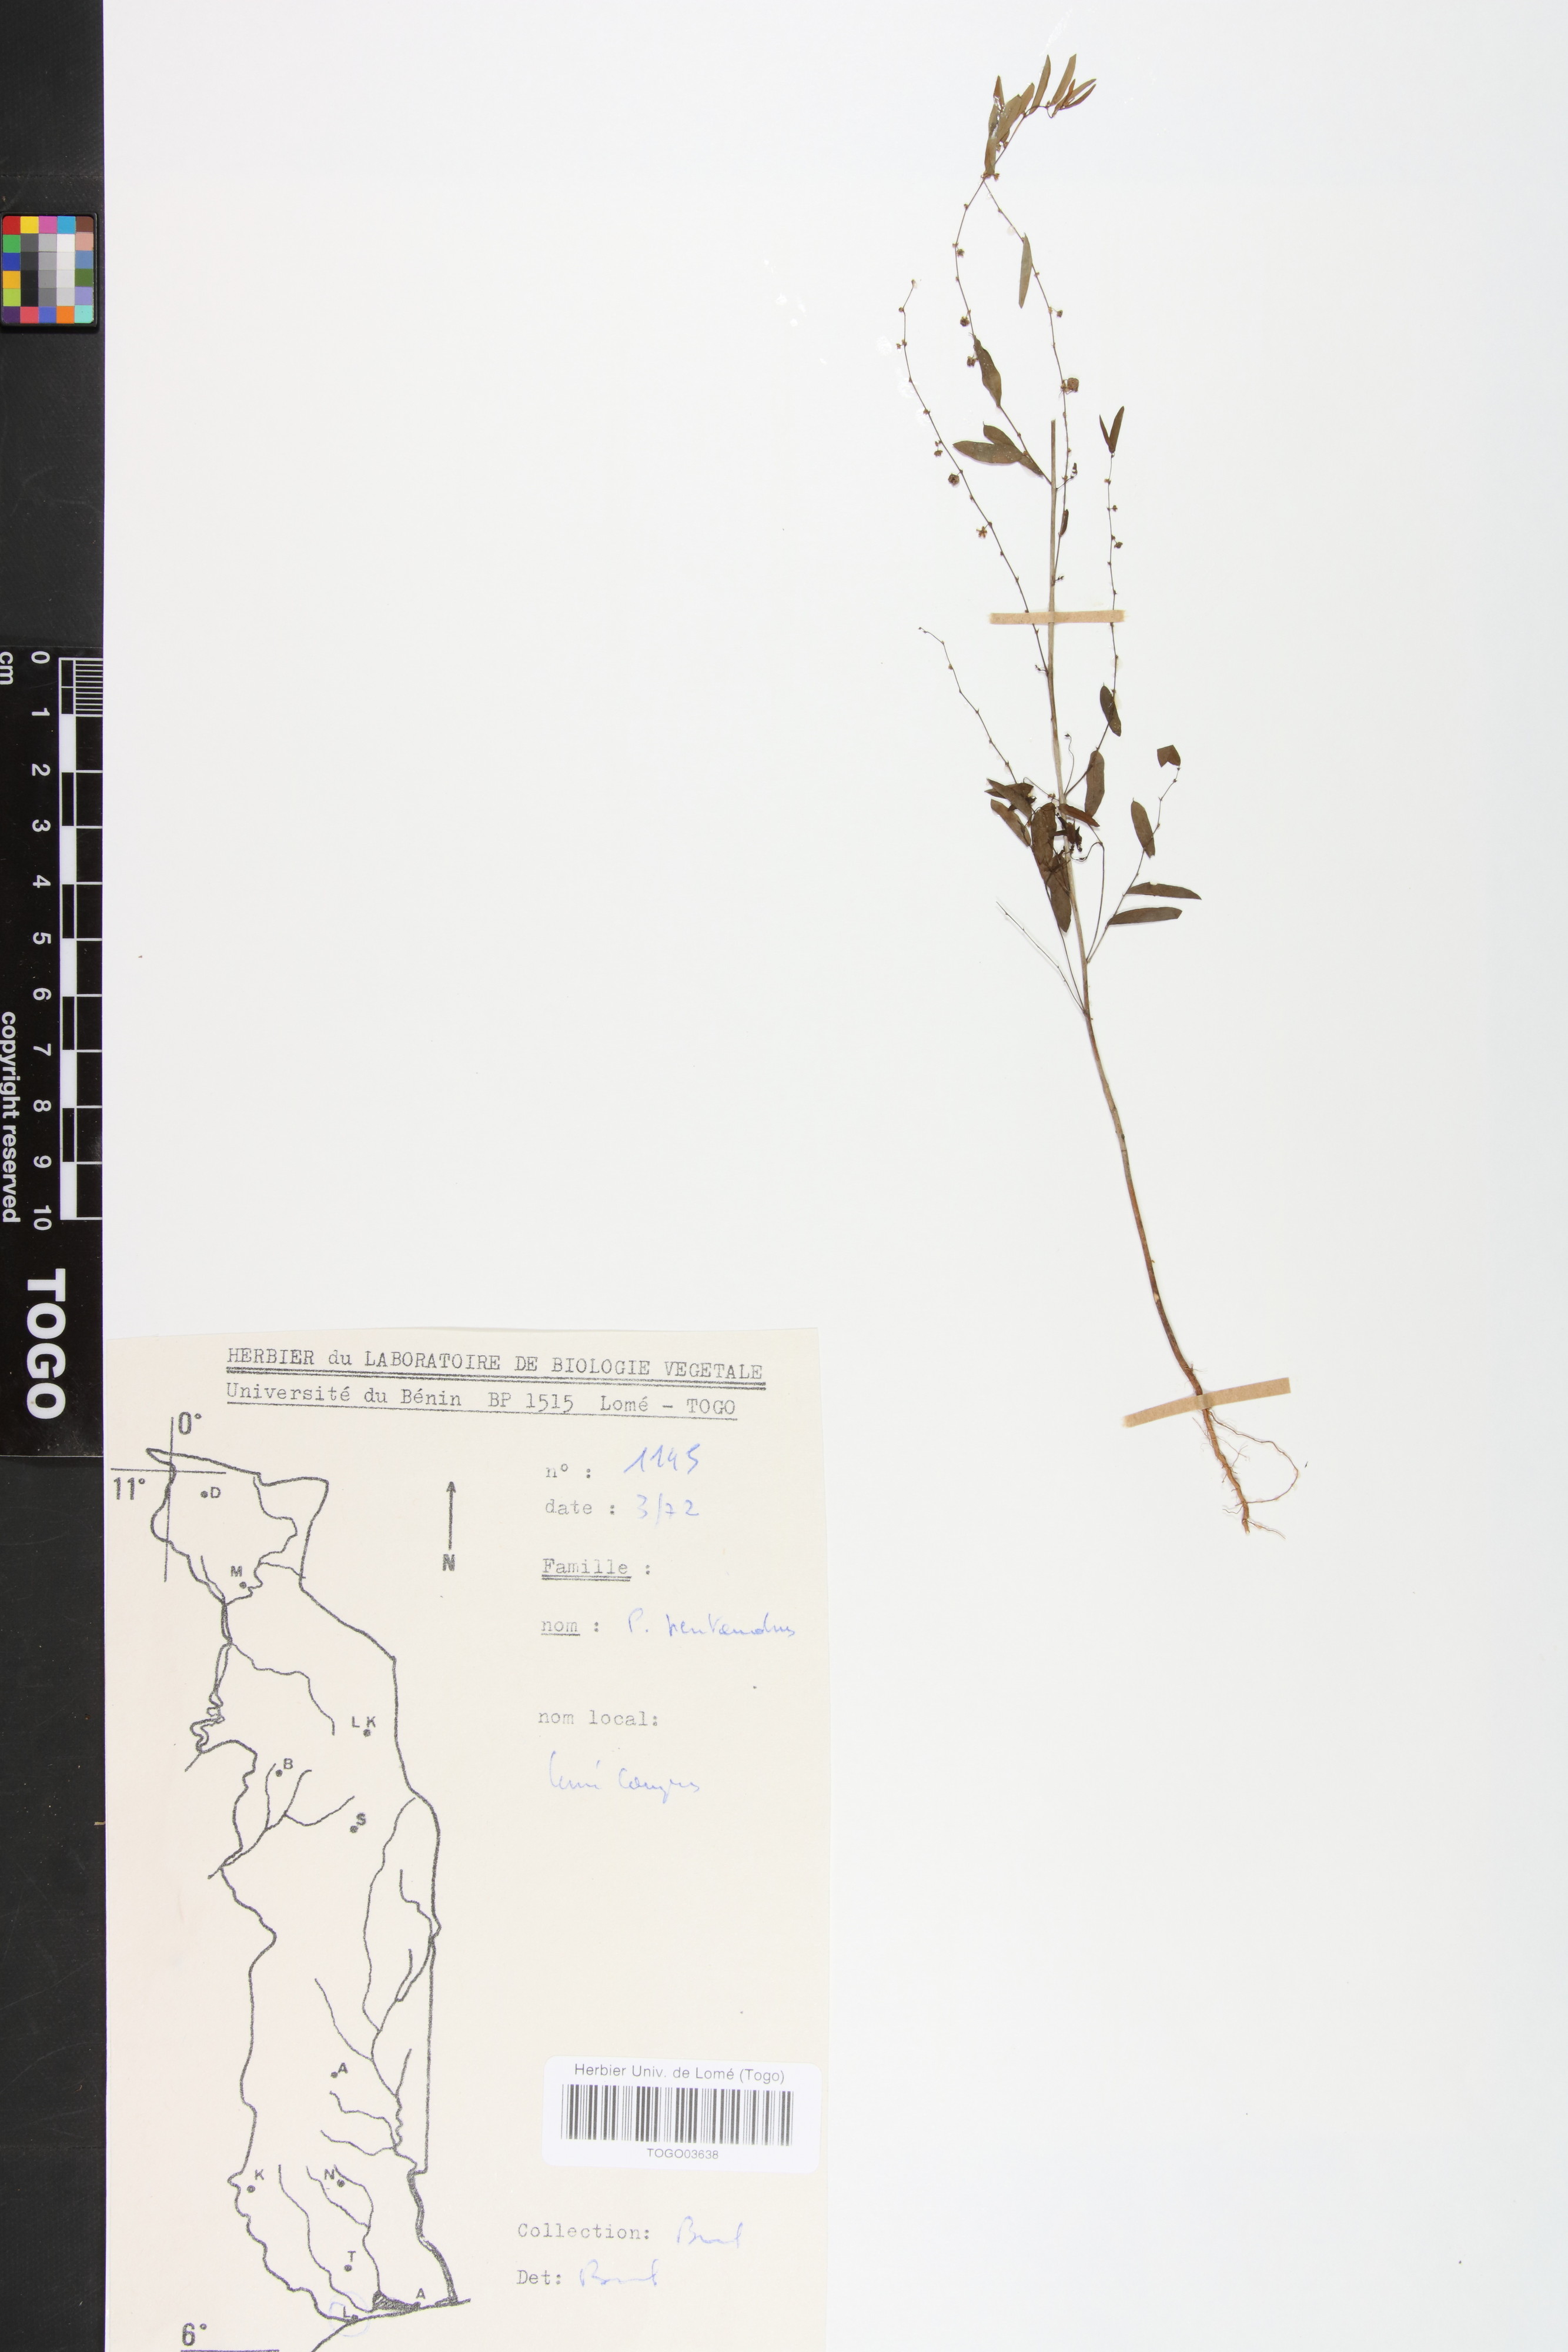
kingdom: Plantae
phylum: Tracheophyta
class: Magnoliopsida
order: Malpighiales
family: Phyllanthaceae
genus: Phyllanthus
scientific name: Phyllanthus pentandrus
